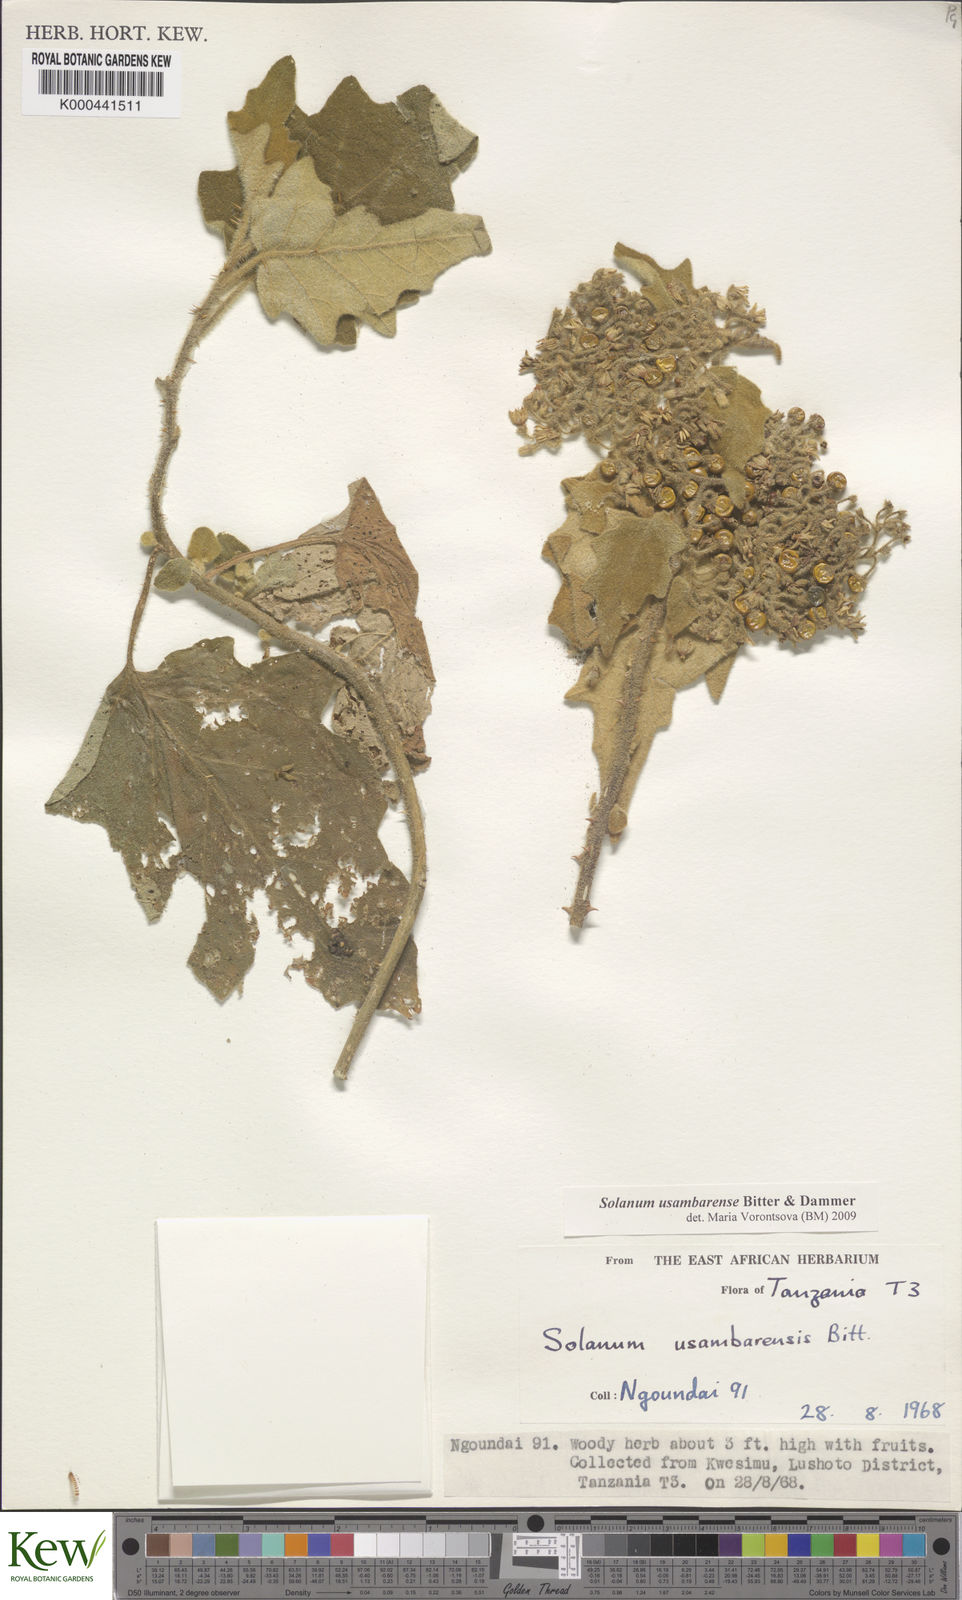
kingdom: Plantae
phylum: Tracheophyta
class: Magnoliopsida
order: Solanales
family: Solanaceae
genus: Solanum
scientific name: Solanum usambarense
